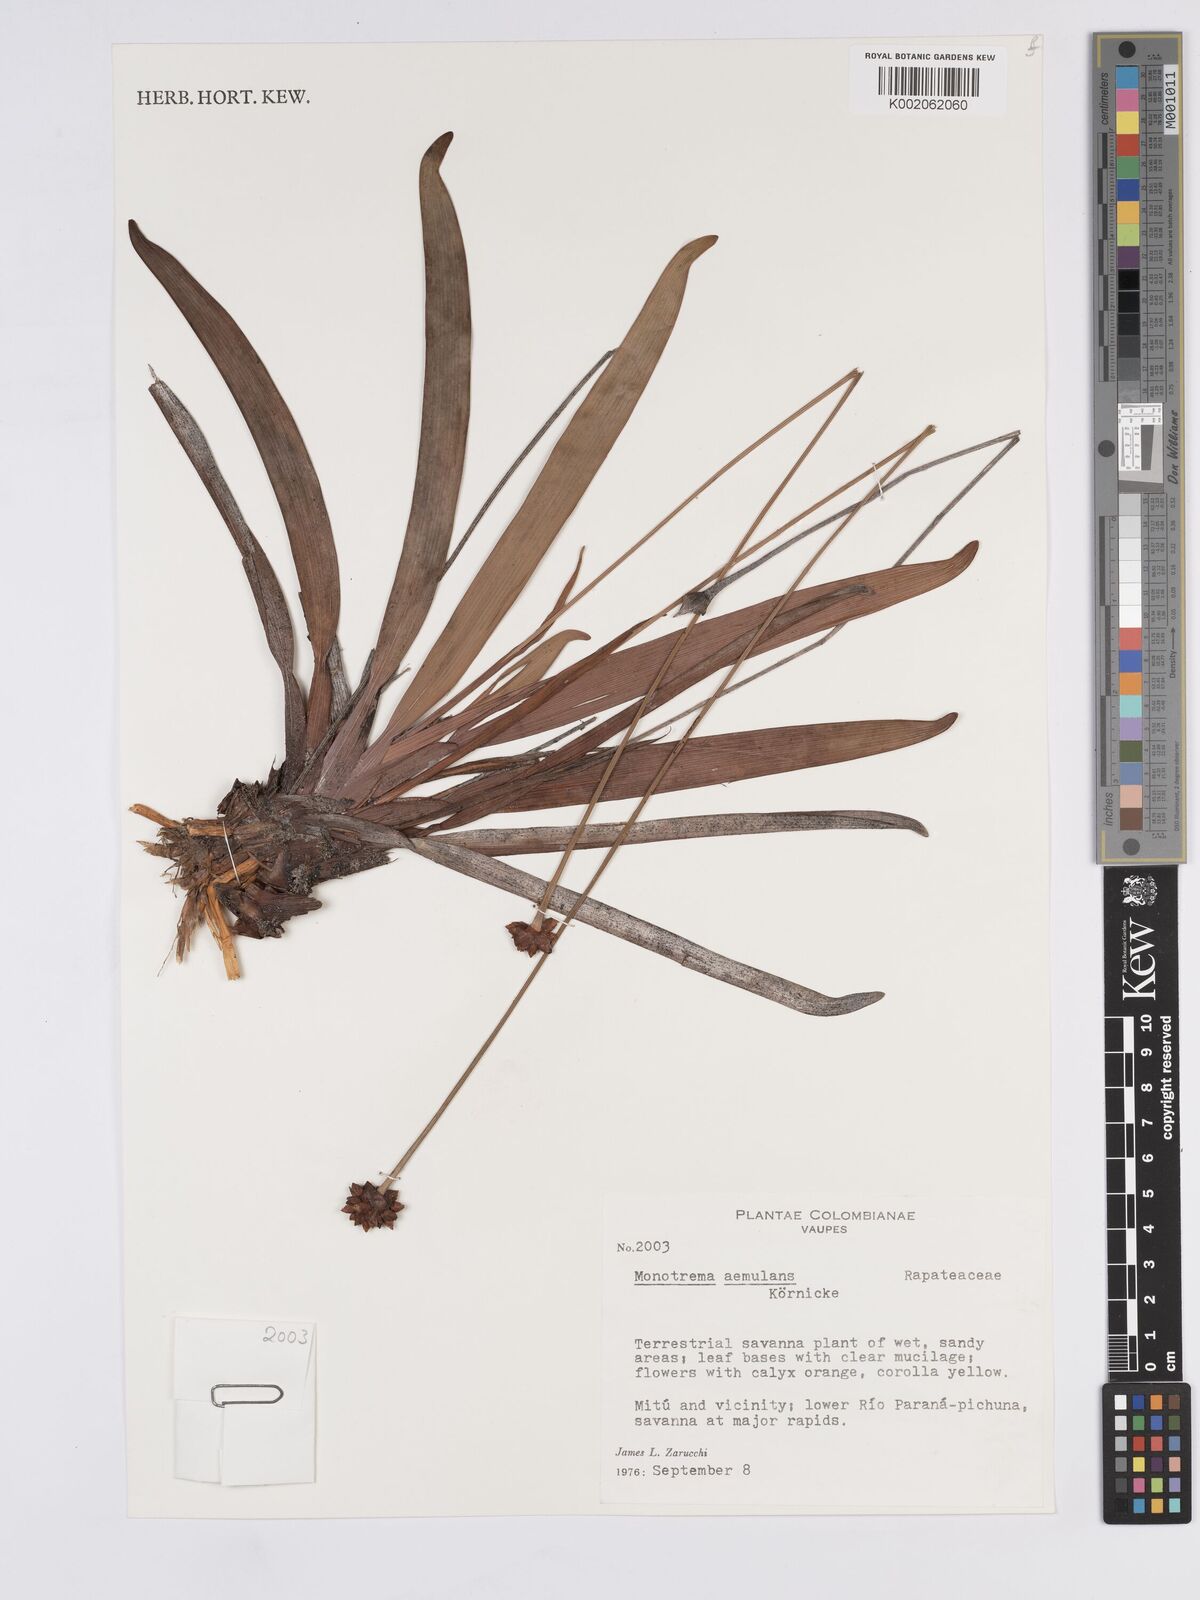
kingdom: Plantae
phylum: Tracheophyta
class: Liliopsida
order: Poales
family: Rapateaceae
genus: Monotrema
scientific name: Monotrema aemulans
